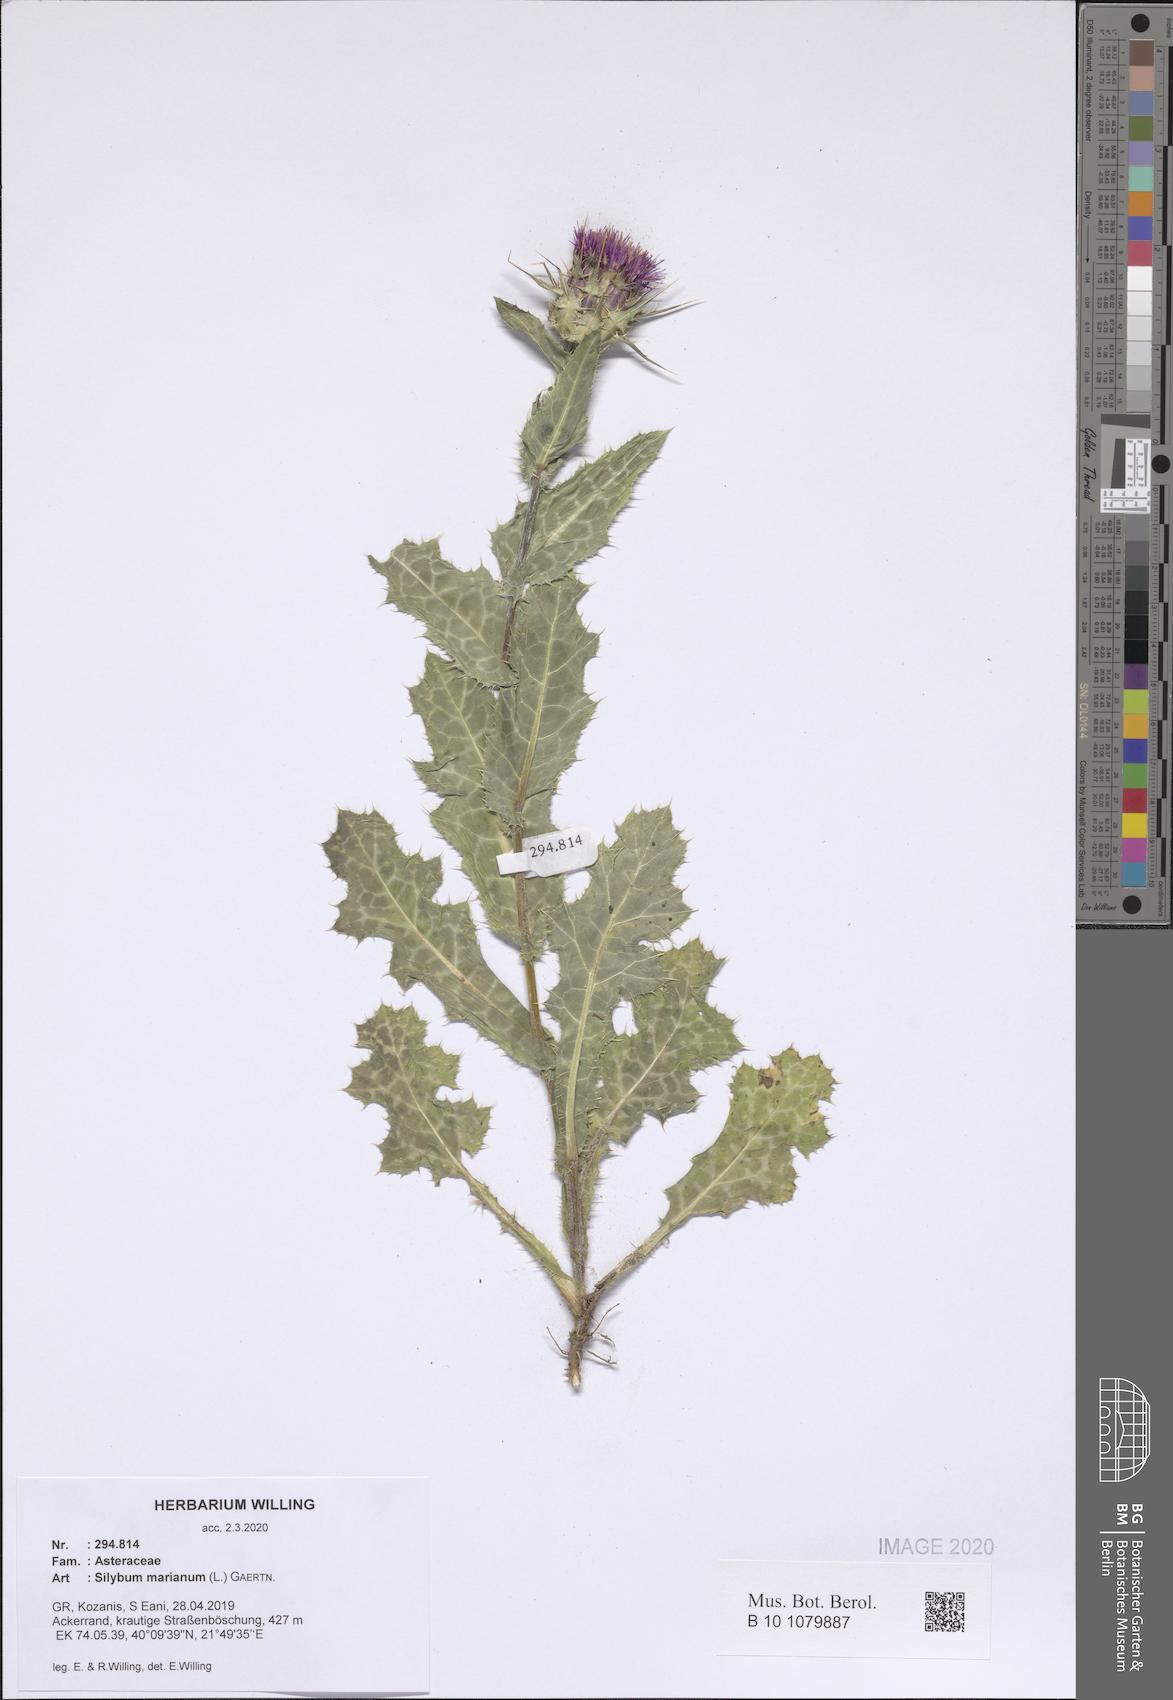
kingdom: Plantae
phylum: Tracheophyta
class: Magnoliopsida
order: Asterales
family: Asteraceae
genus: Silybum
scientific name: Silybum marianum
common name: Milk thistle
